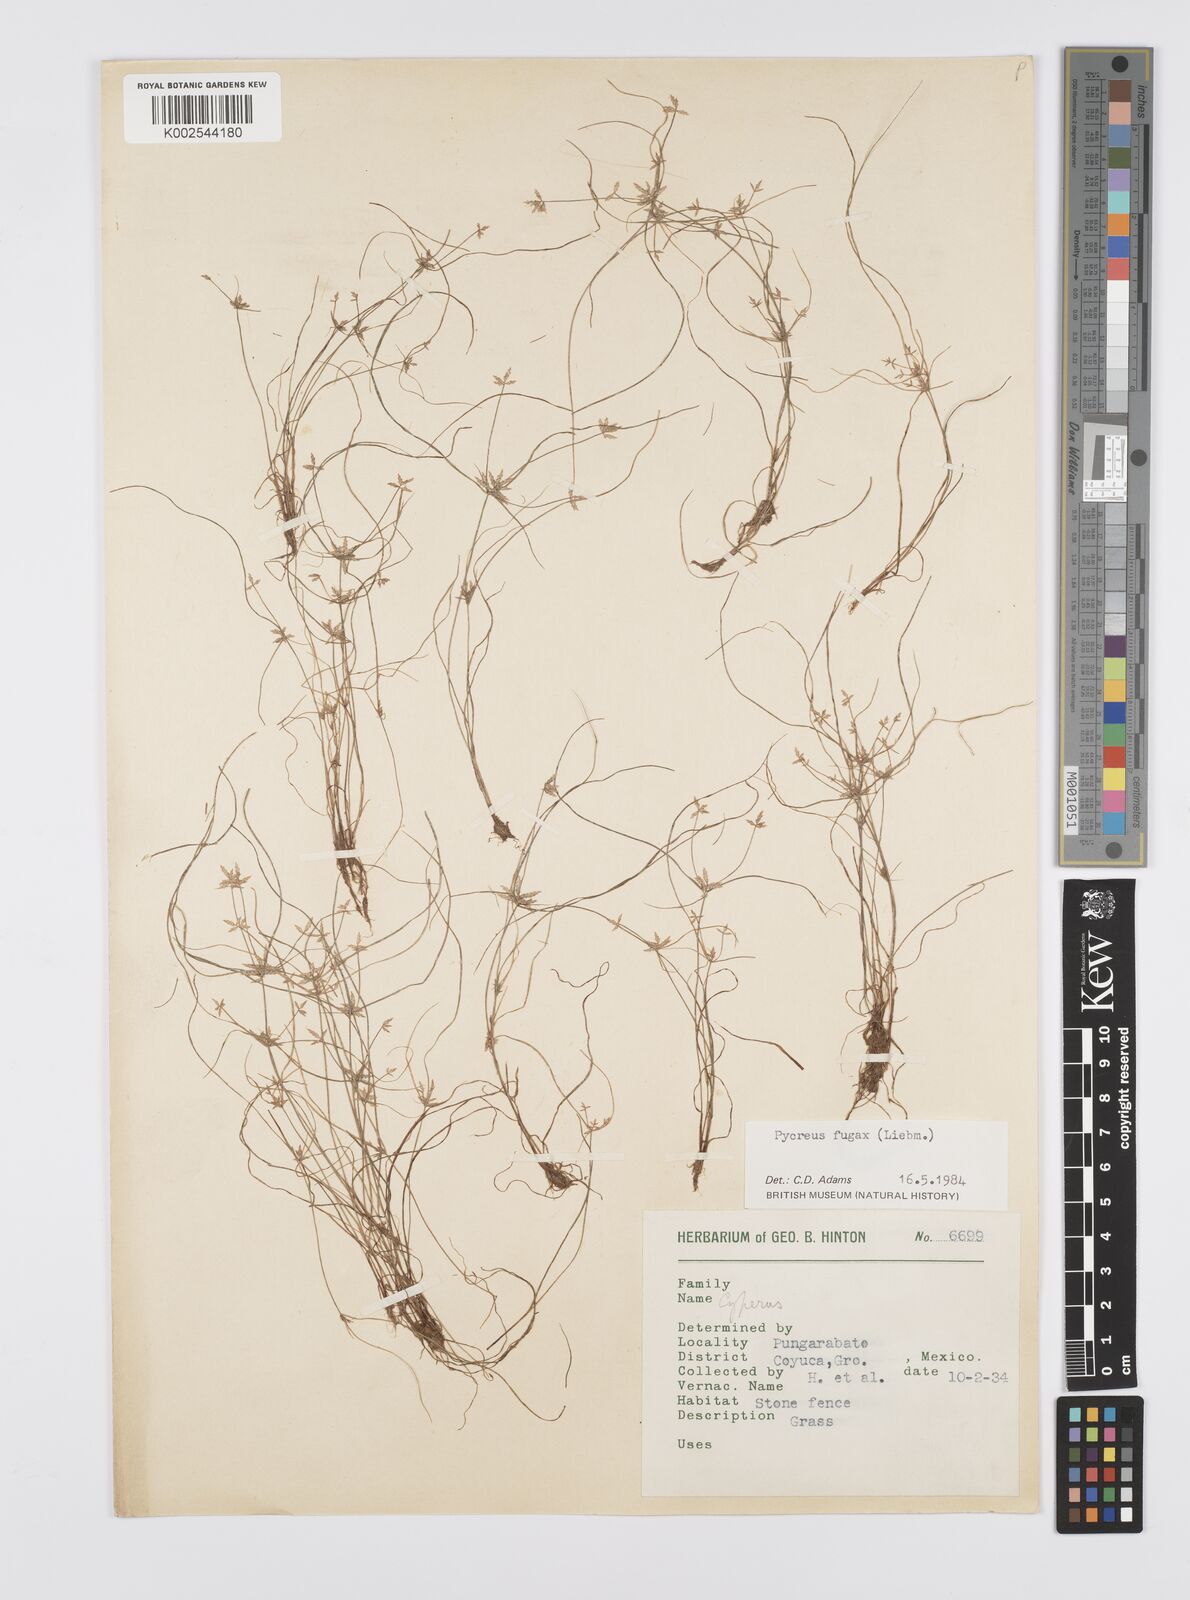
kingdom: Plantae
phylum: Tracheophyta
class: Liliopsida
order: Poales
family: Cyperaceae
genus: Cyperus
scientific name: Cyperus polystachyos
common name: Bunchy flat sedge
